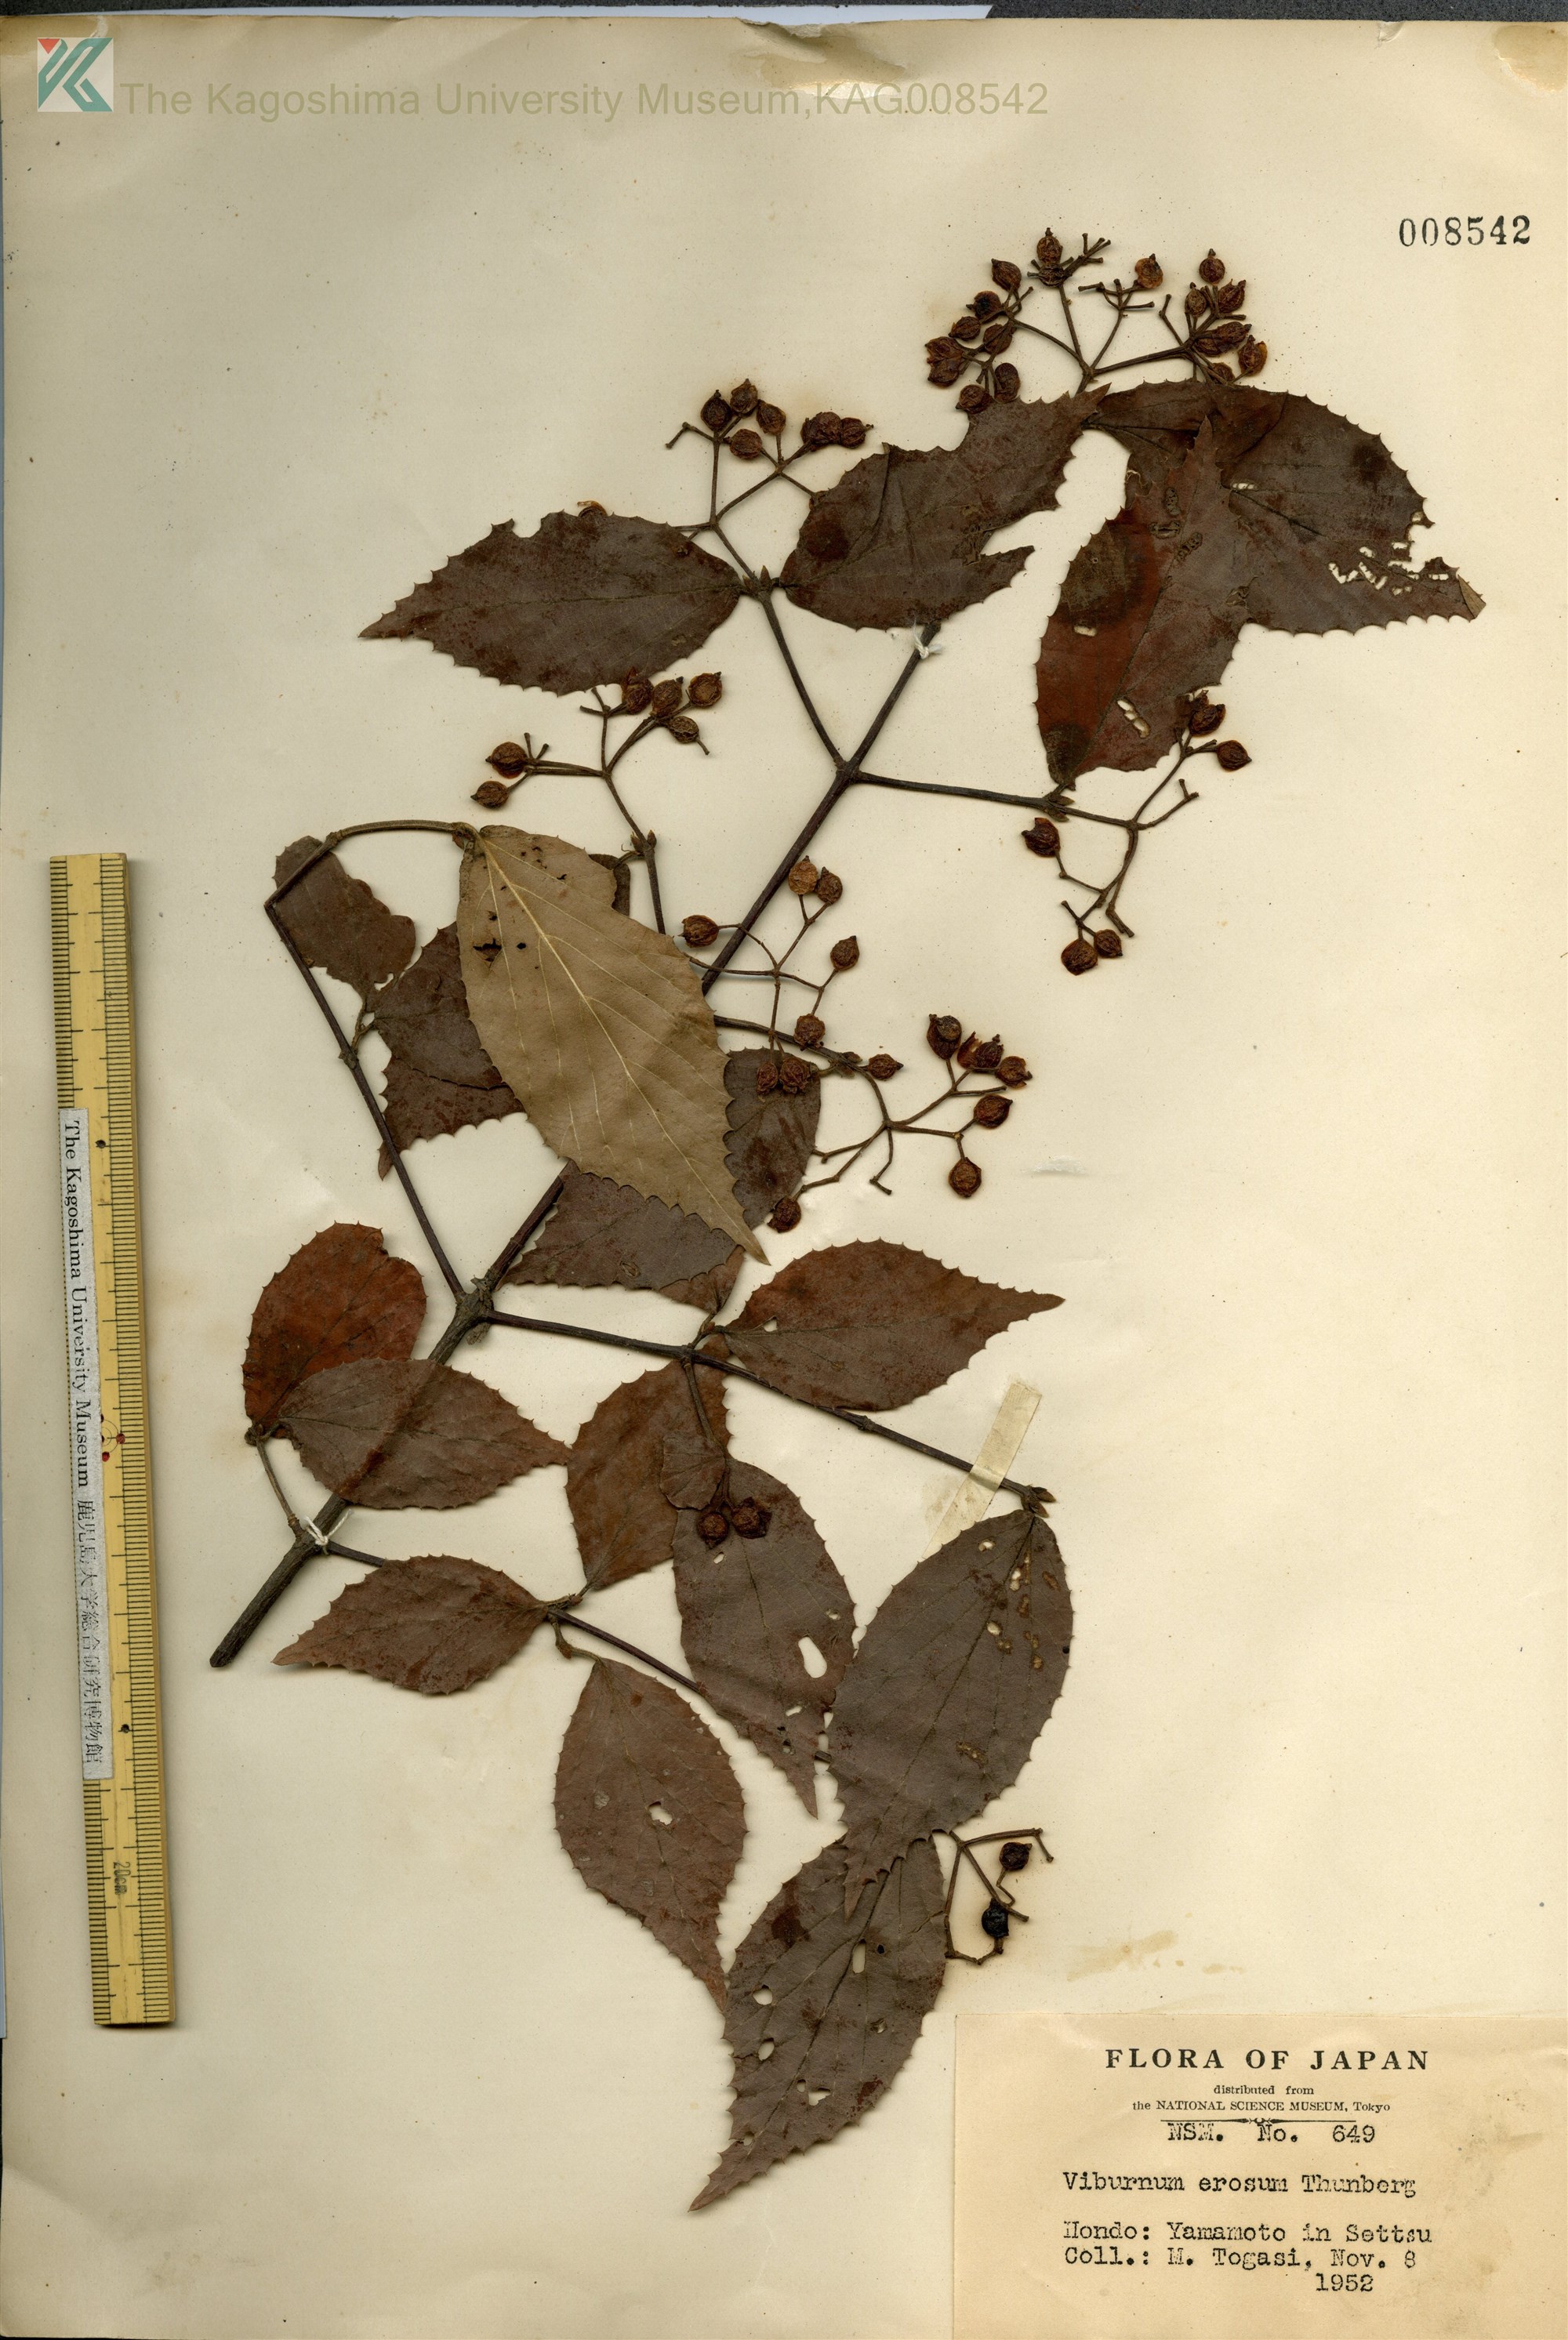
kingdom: Plantae
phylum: Tracheophyta
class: Magnoliopsida
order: Dipsacales
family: Viburnaceae
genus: Viburnum
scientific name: Viburnum erosum
